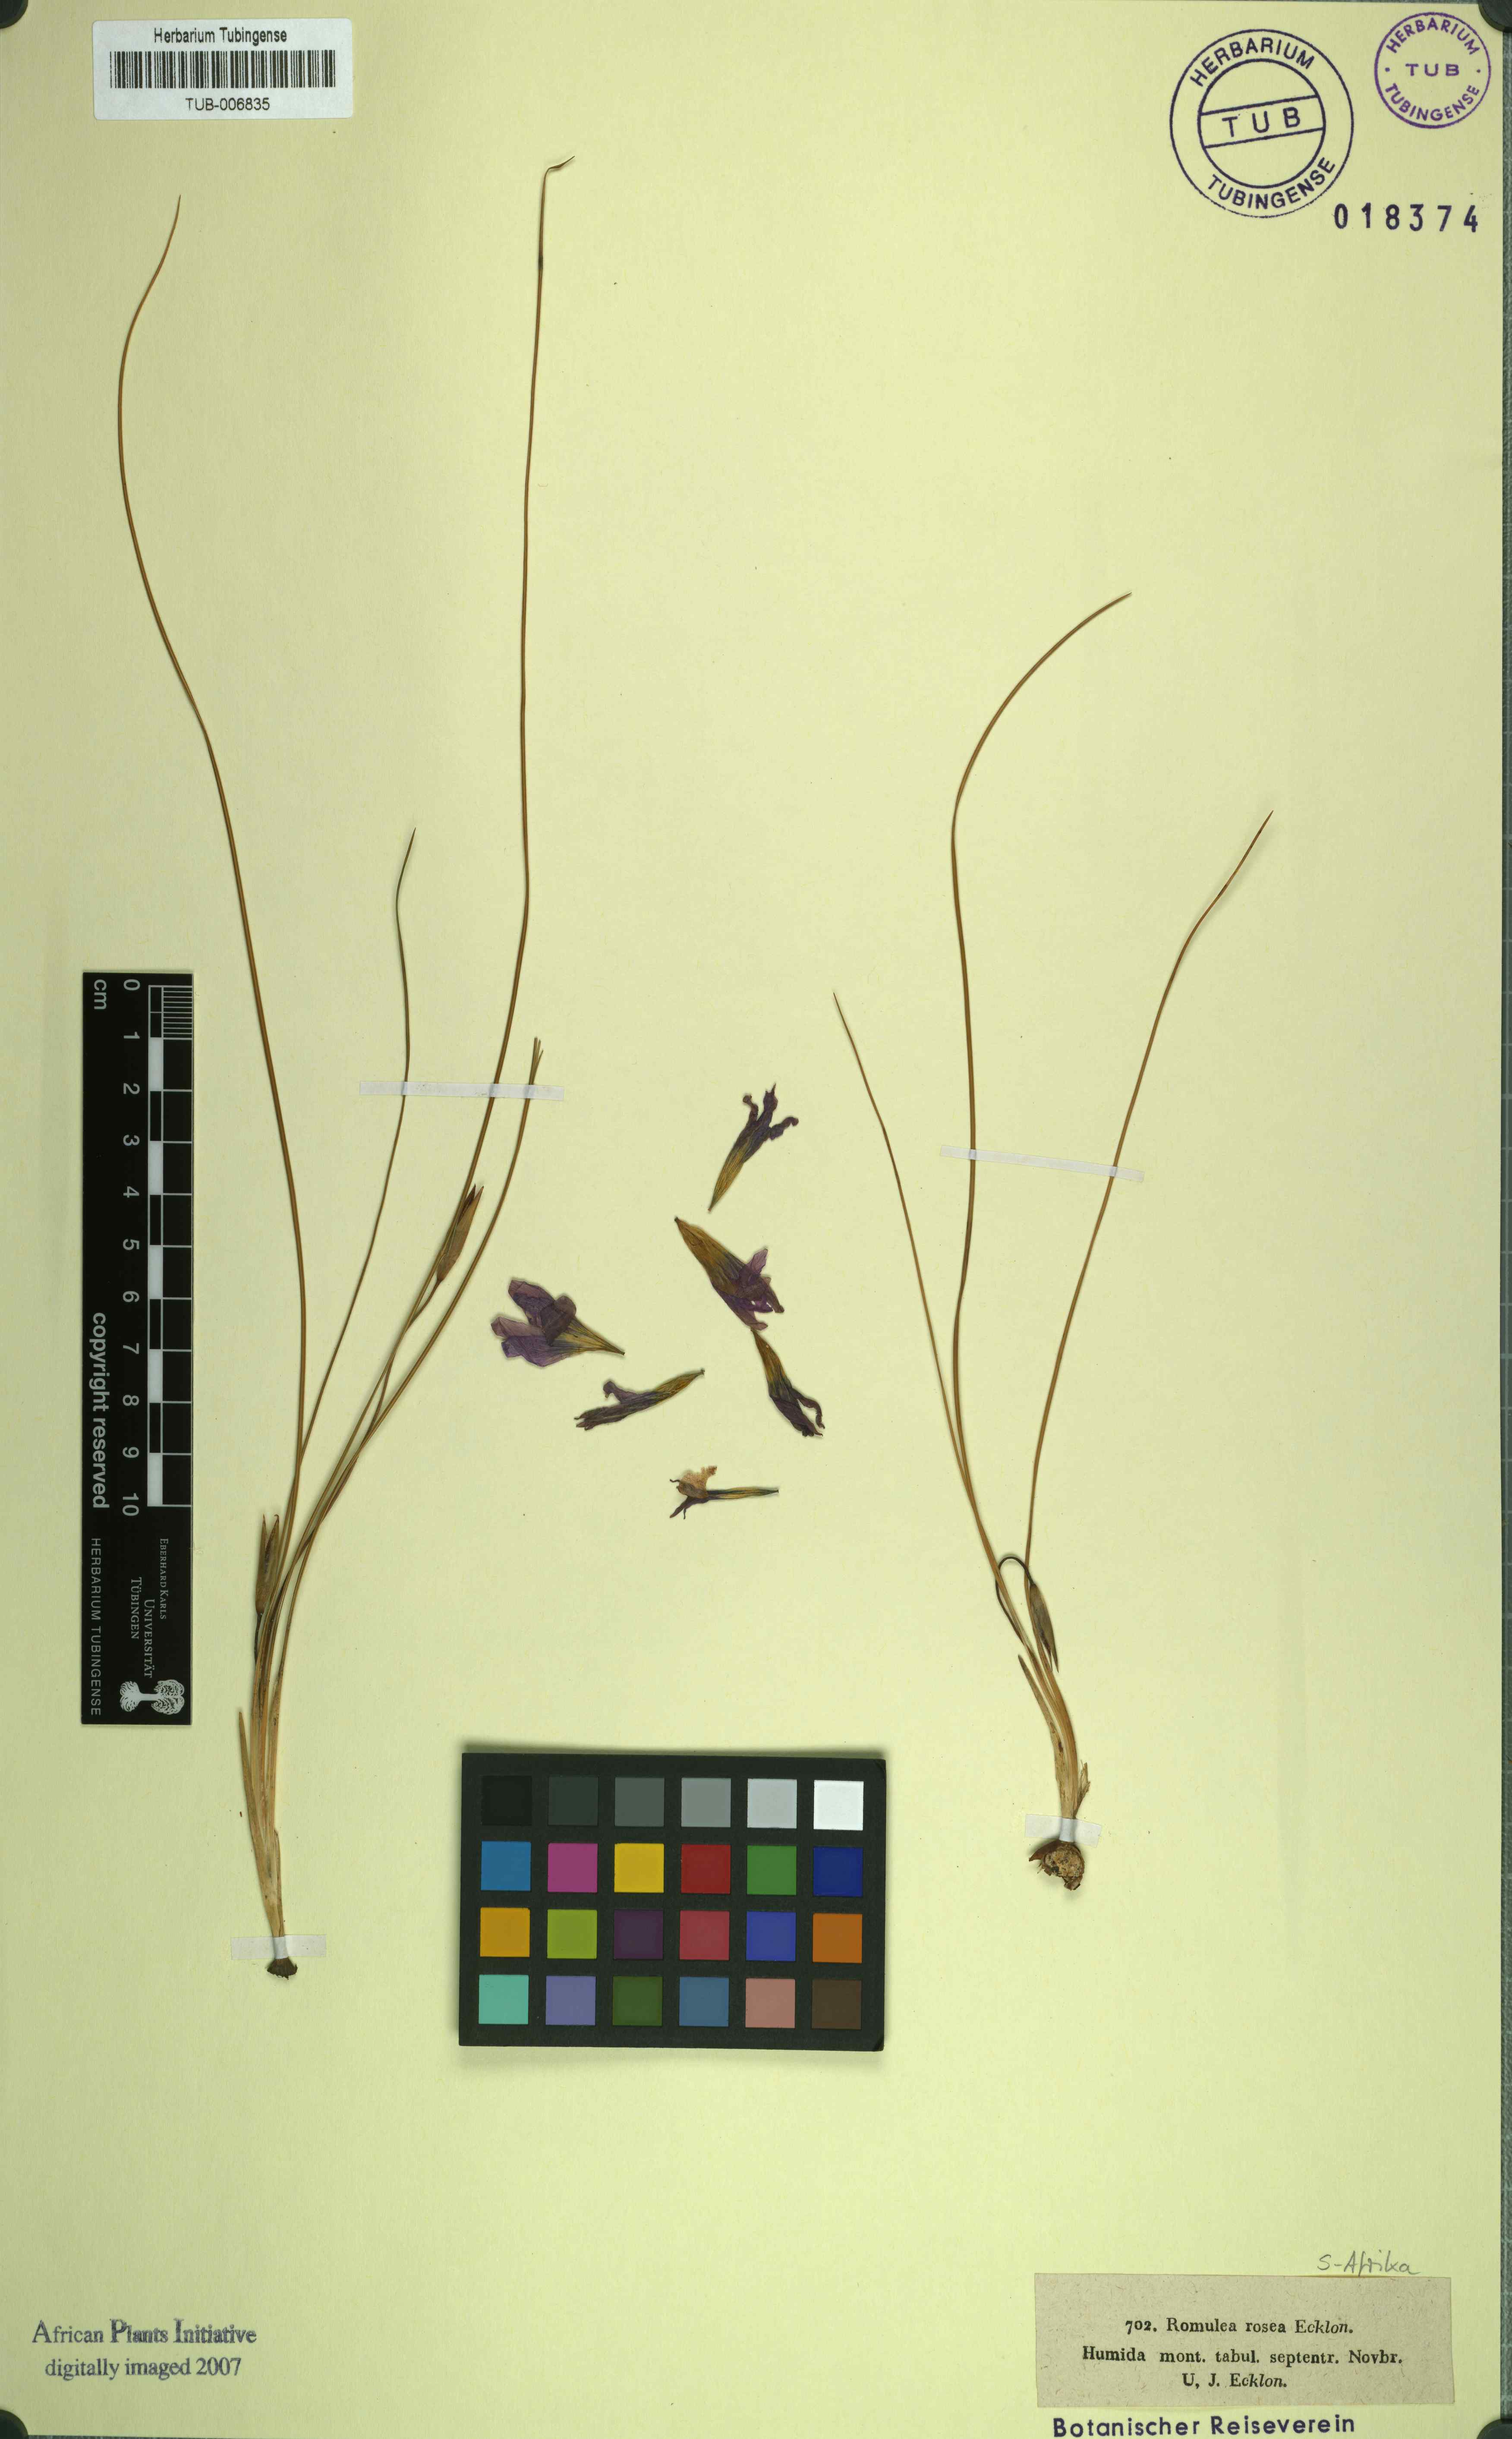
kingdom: Plantae
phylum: Tracheophyta
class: Liliopsida
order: Asparagales
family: Iridaceae
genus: Romulea
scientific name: Romulea rosea
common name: Oniongrass
